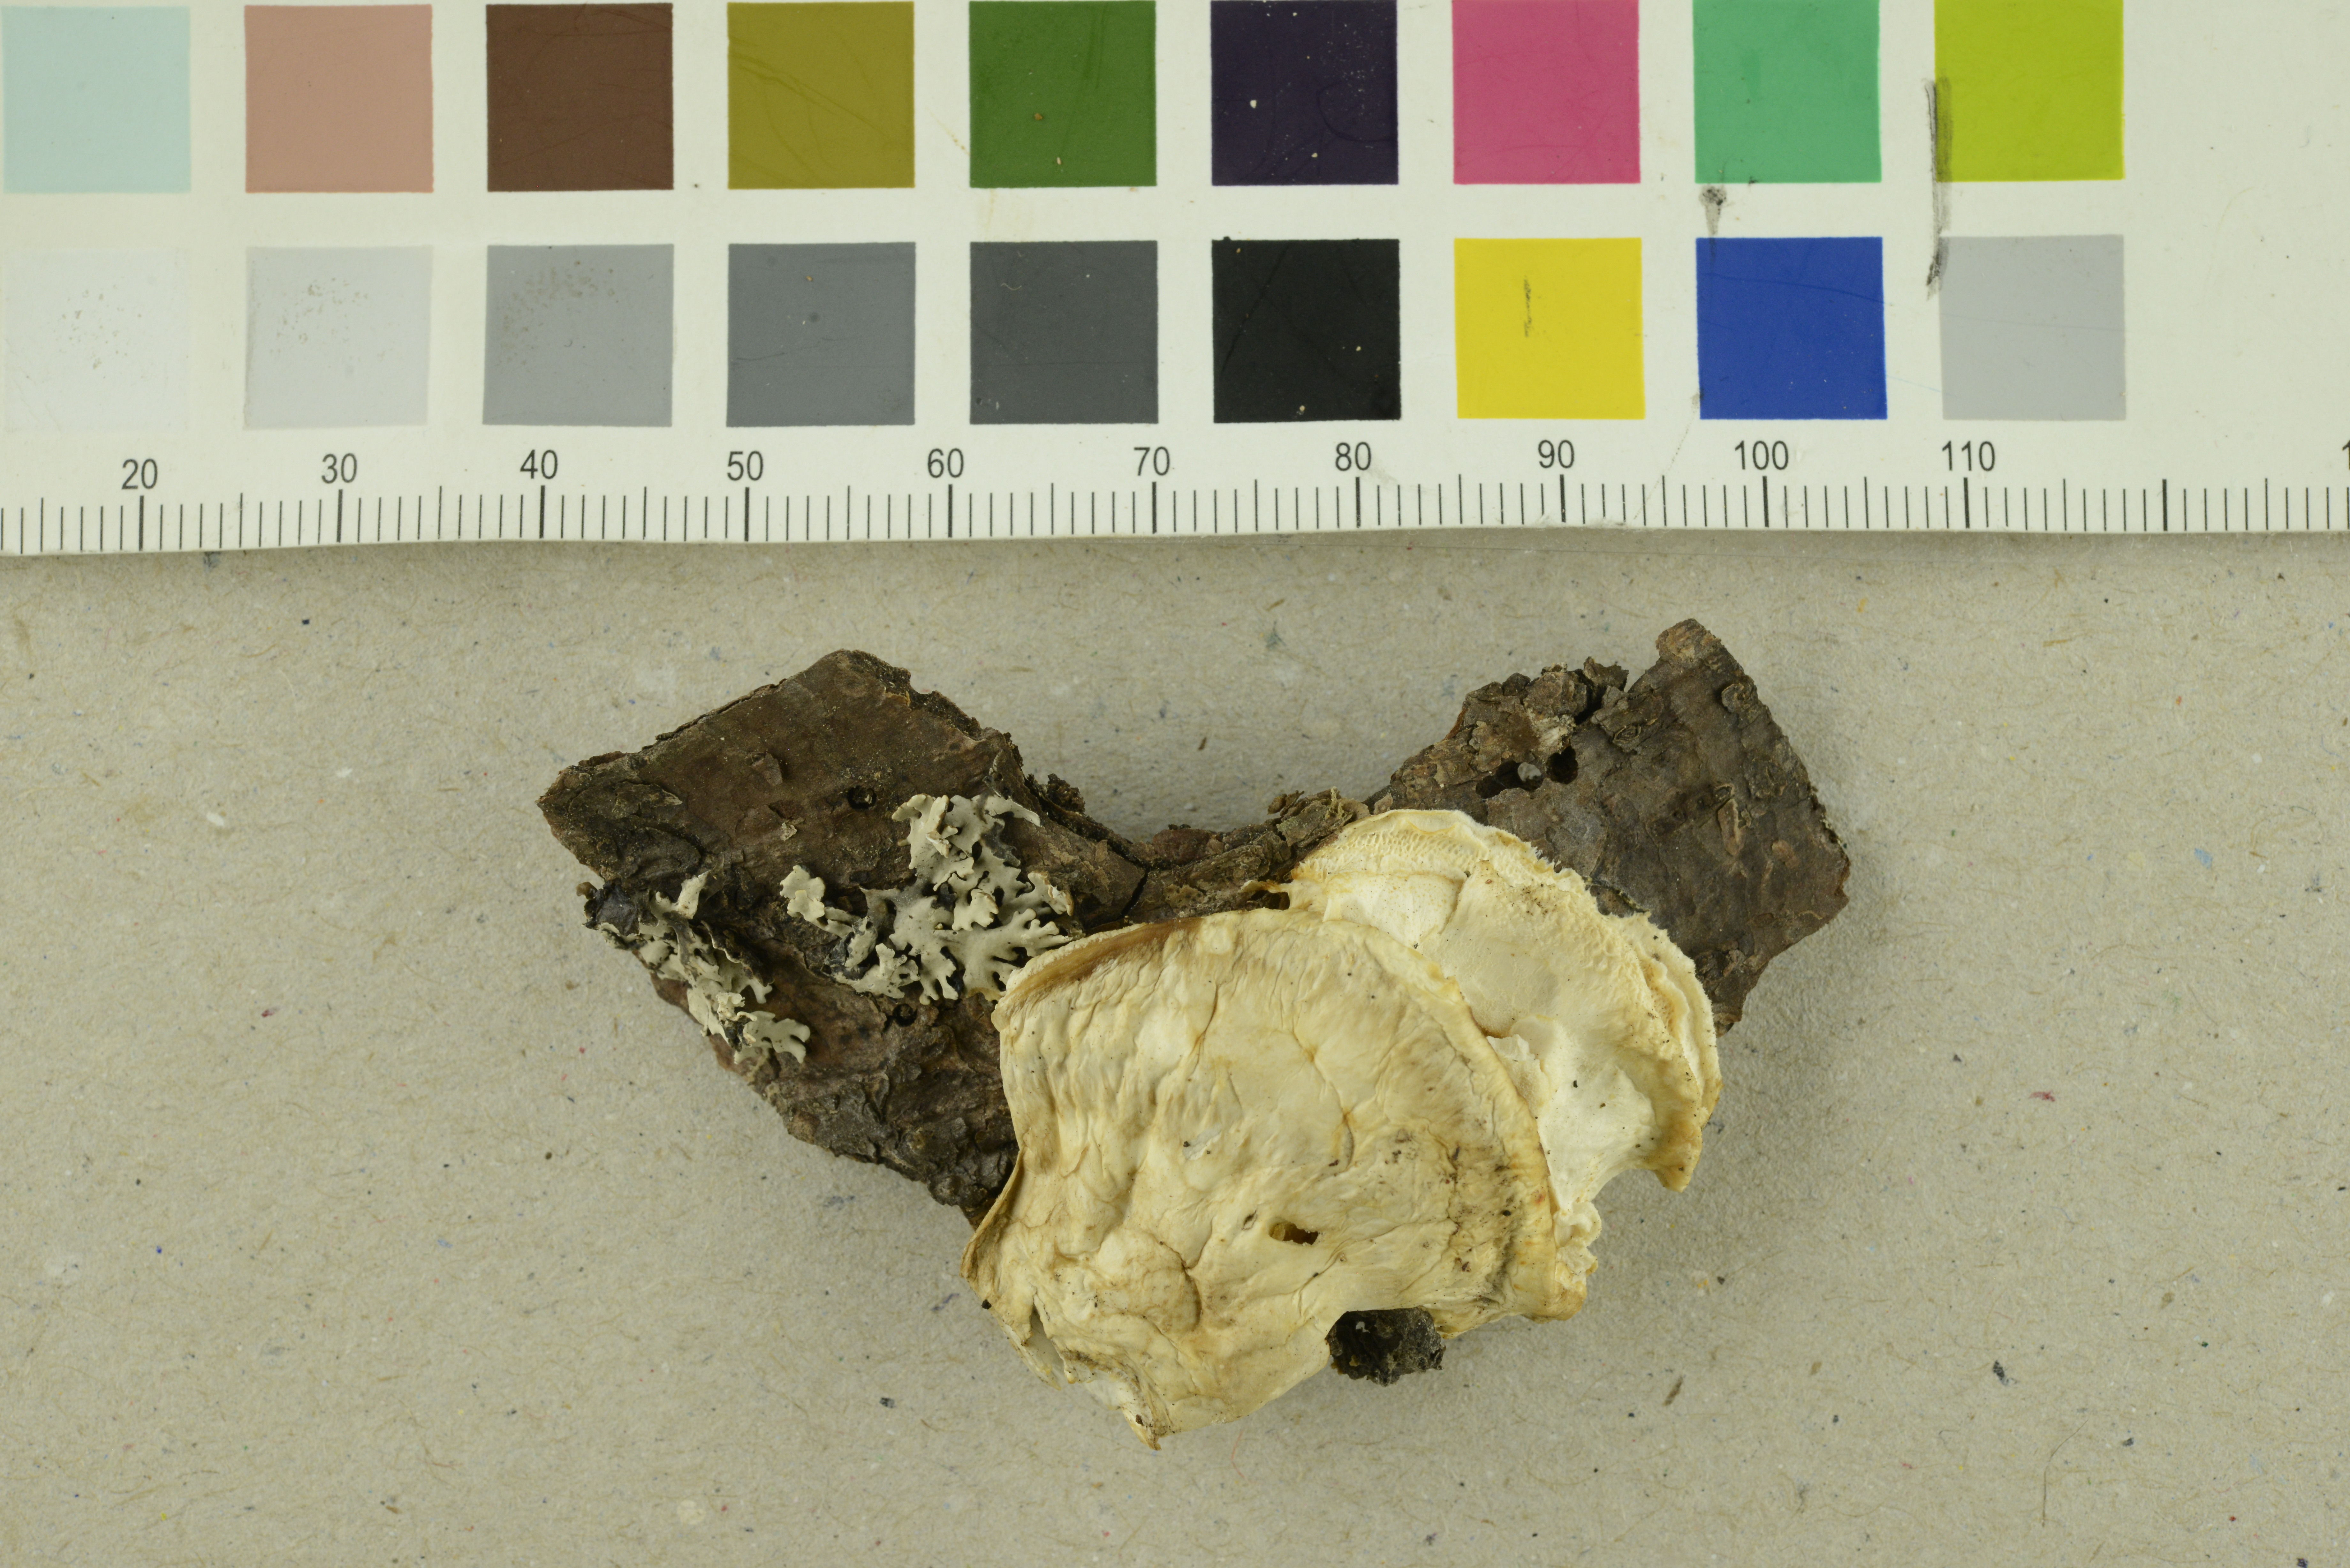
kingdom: Fungi
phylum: Basidiomycota
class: Agaricomycetes
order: Polyporales
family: Dacryobolaceae
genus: Postia
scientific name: Postia tephroleuca
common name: Greyling bracket
